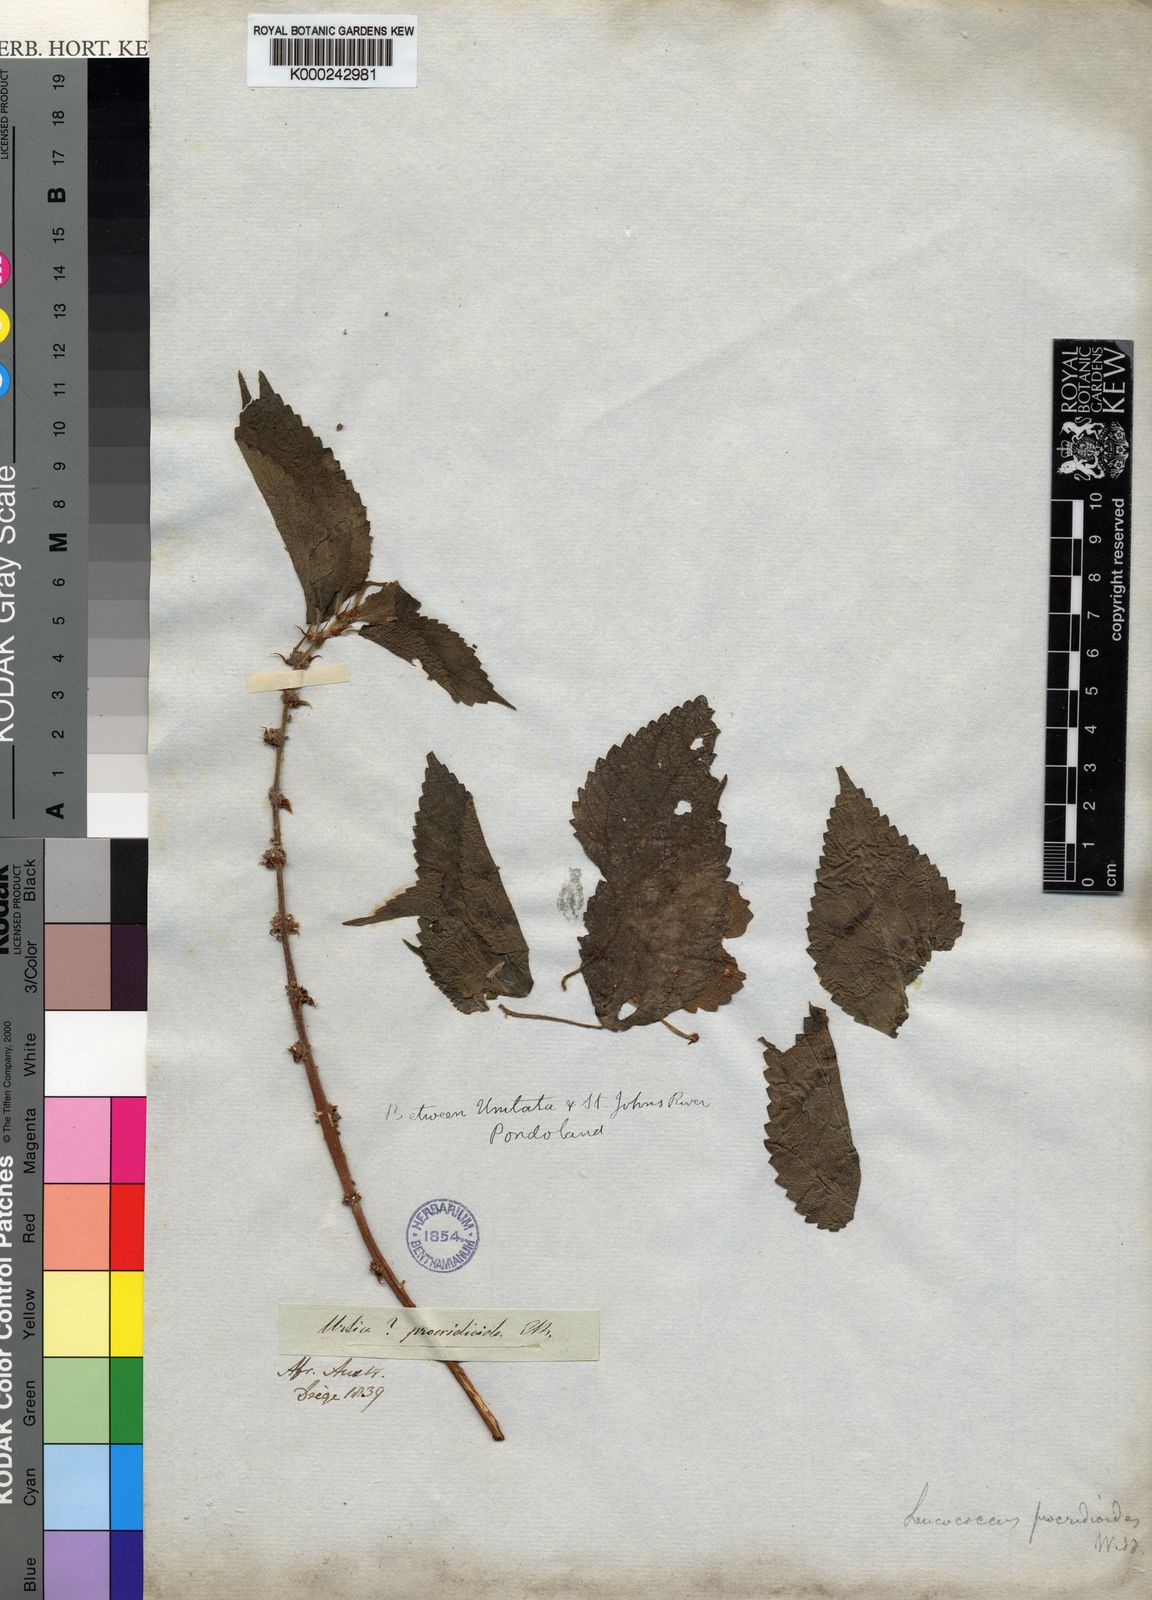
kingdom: Plantae
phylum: Tracheophyta
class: Magnoliopsida
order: Rosales
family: Urticaceae
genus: Pouzolzia
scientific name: Pouzolzia parasitica
